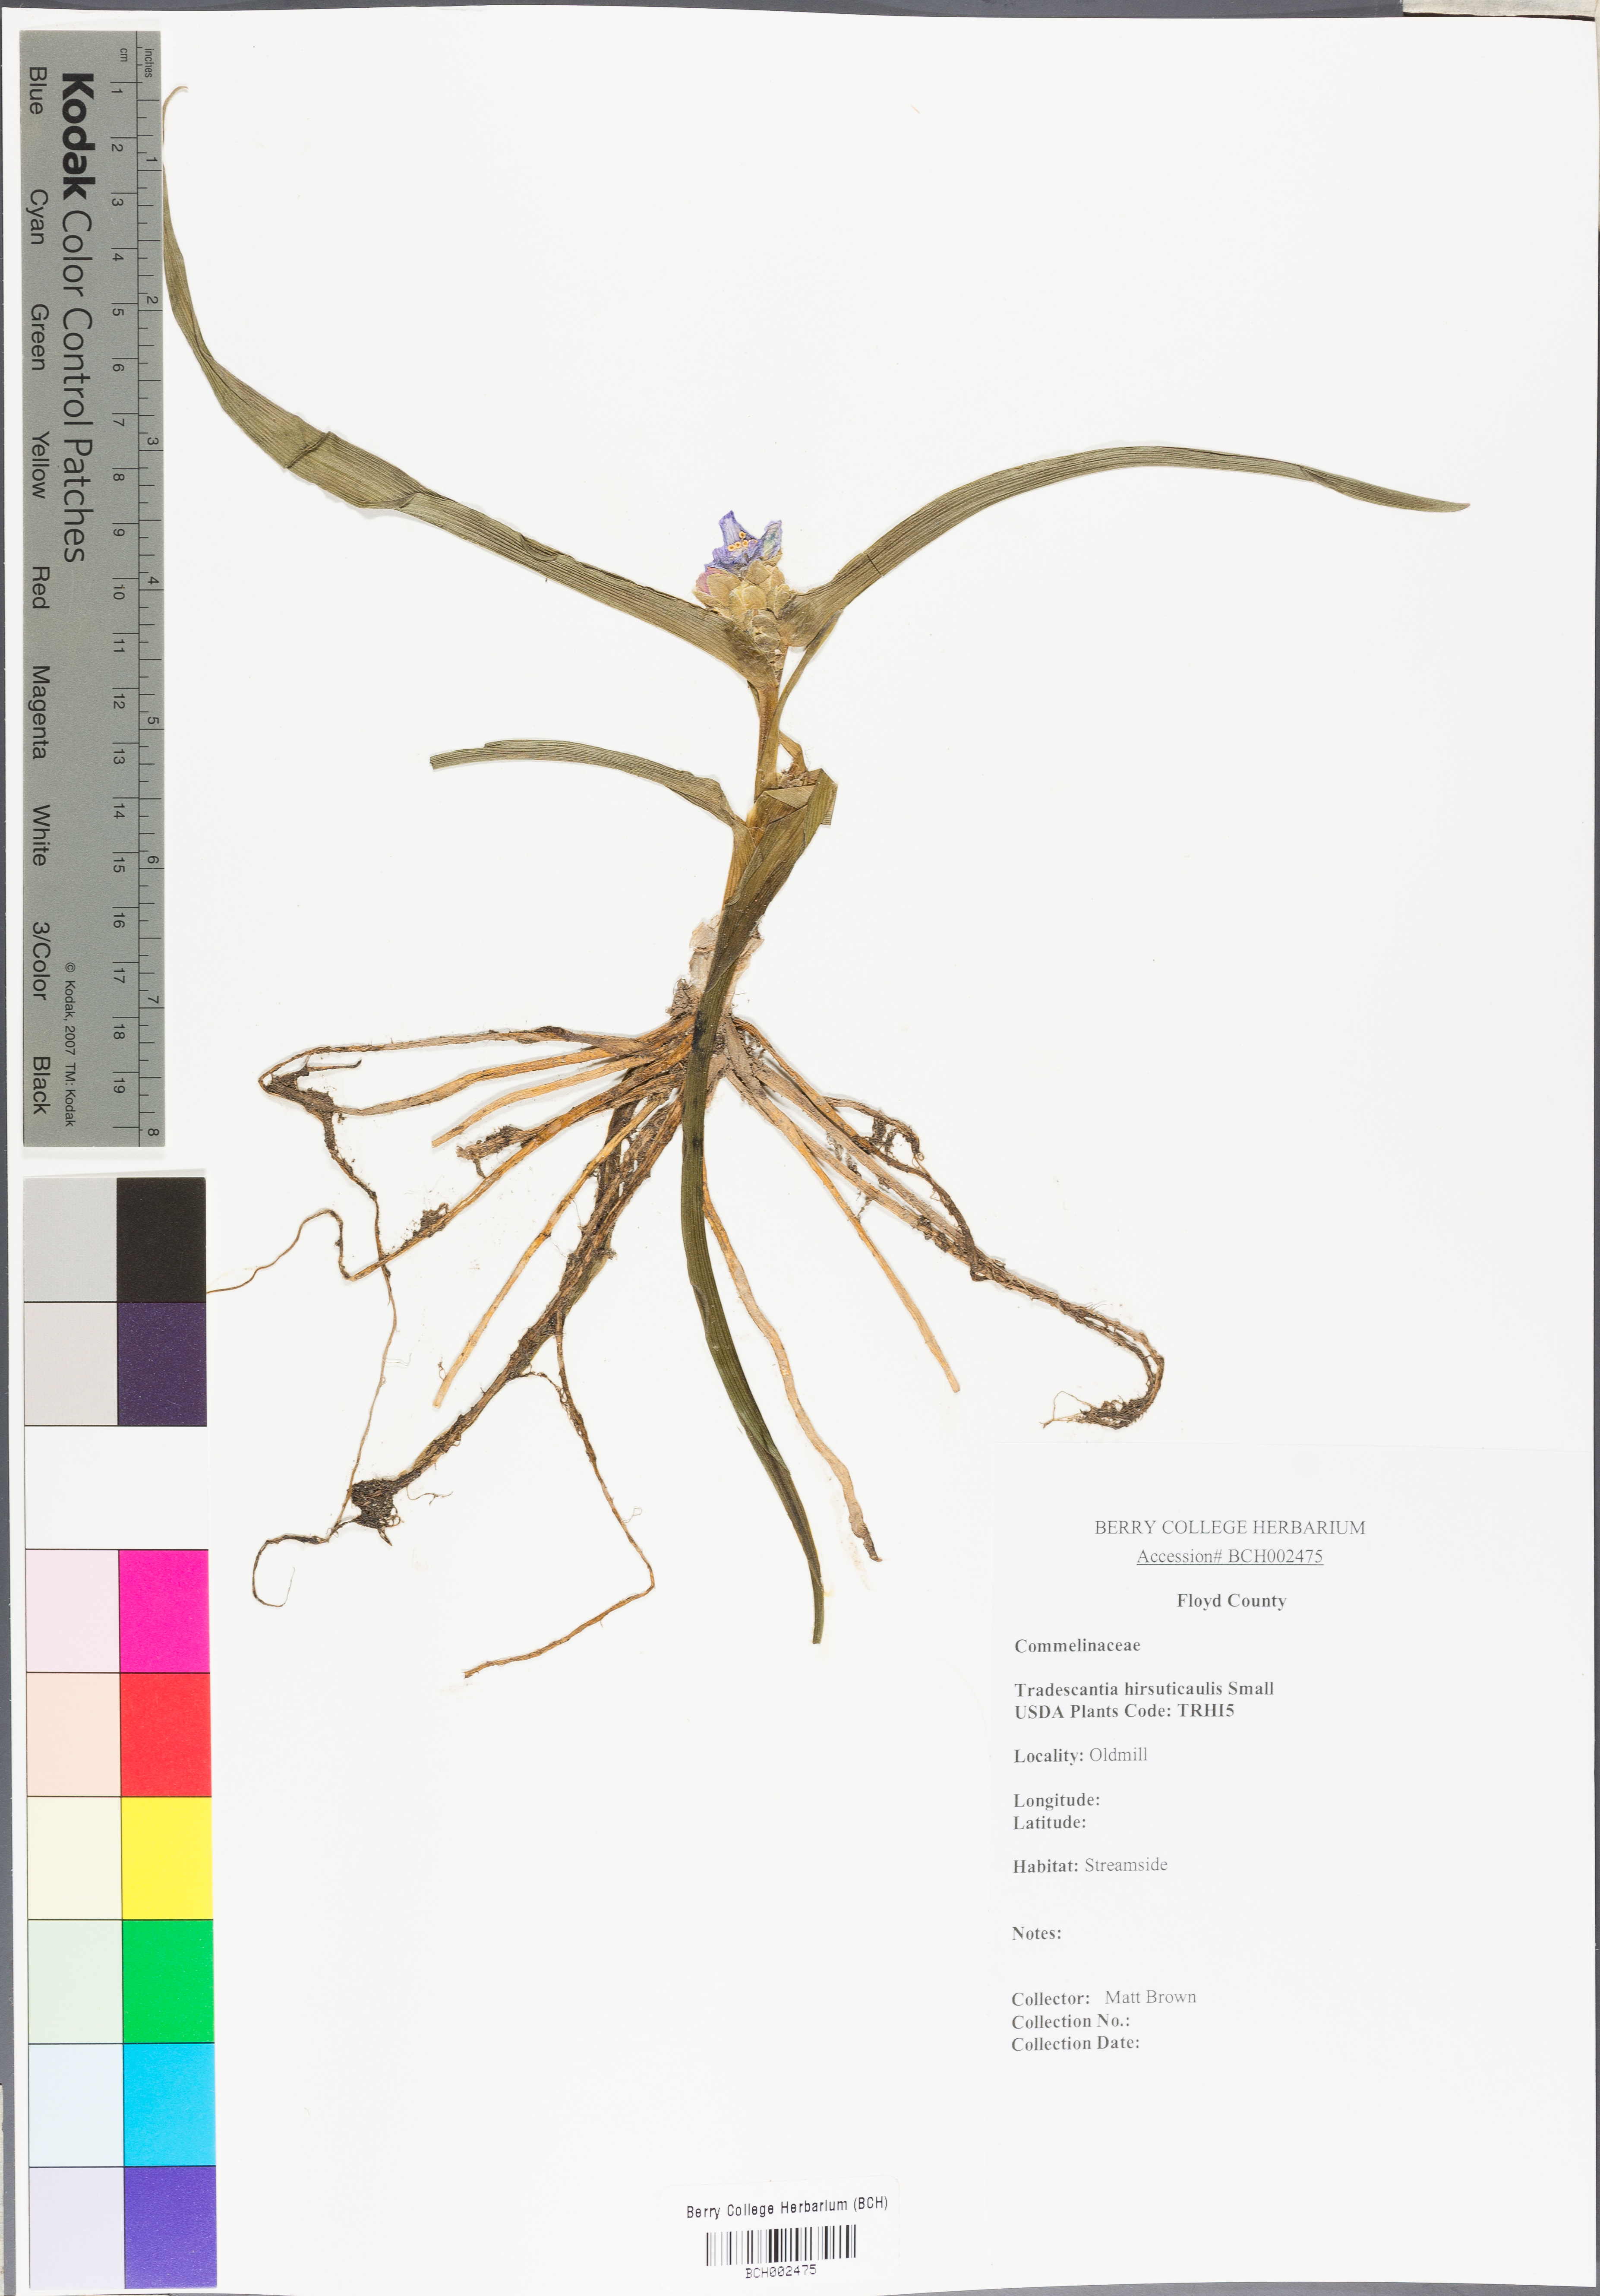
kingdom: Plantae
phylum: Tracheophyta
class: Liliopsida
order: Commelinales
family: Commelinaceae
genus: Tradescantia
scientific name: Tradescantia hirsuticaulis
